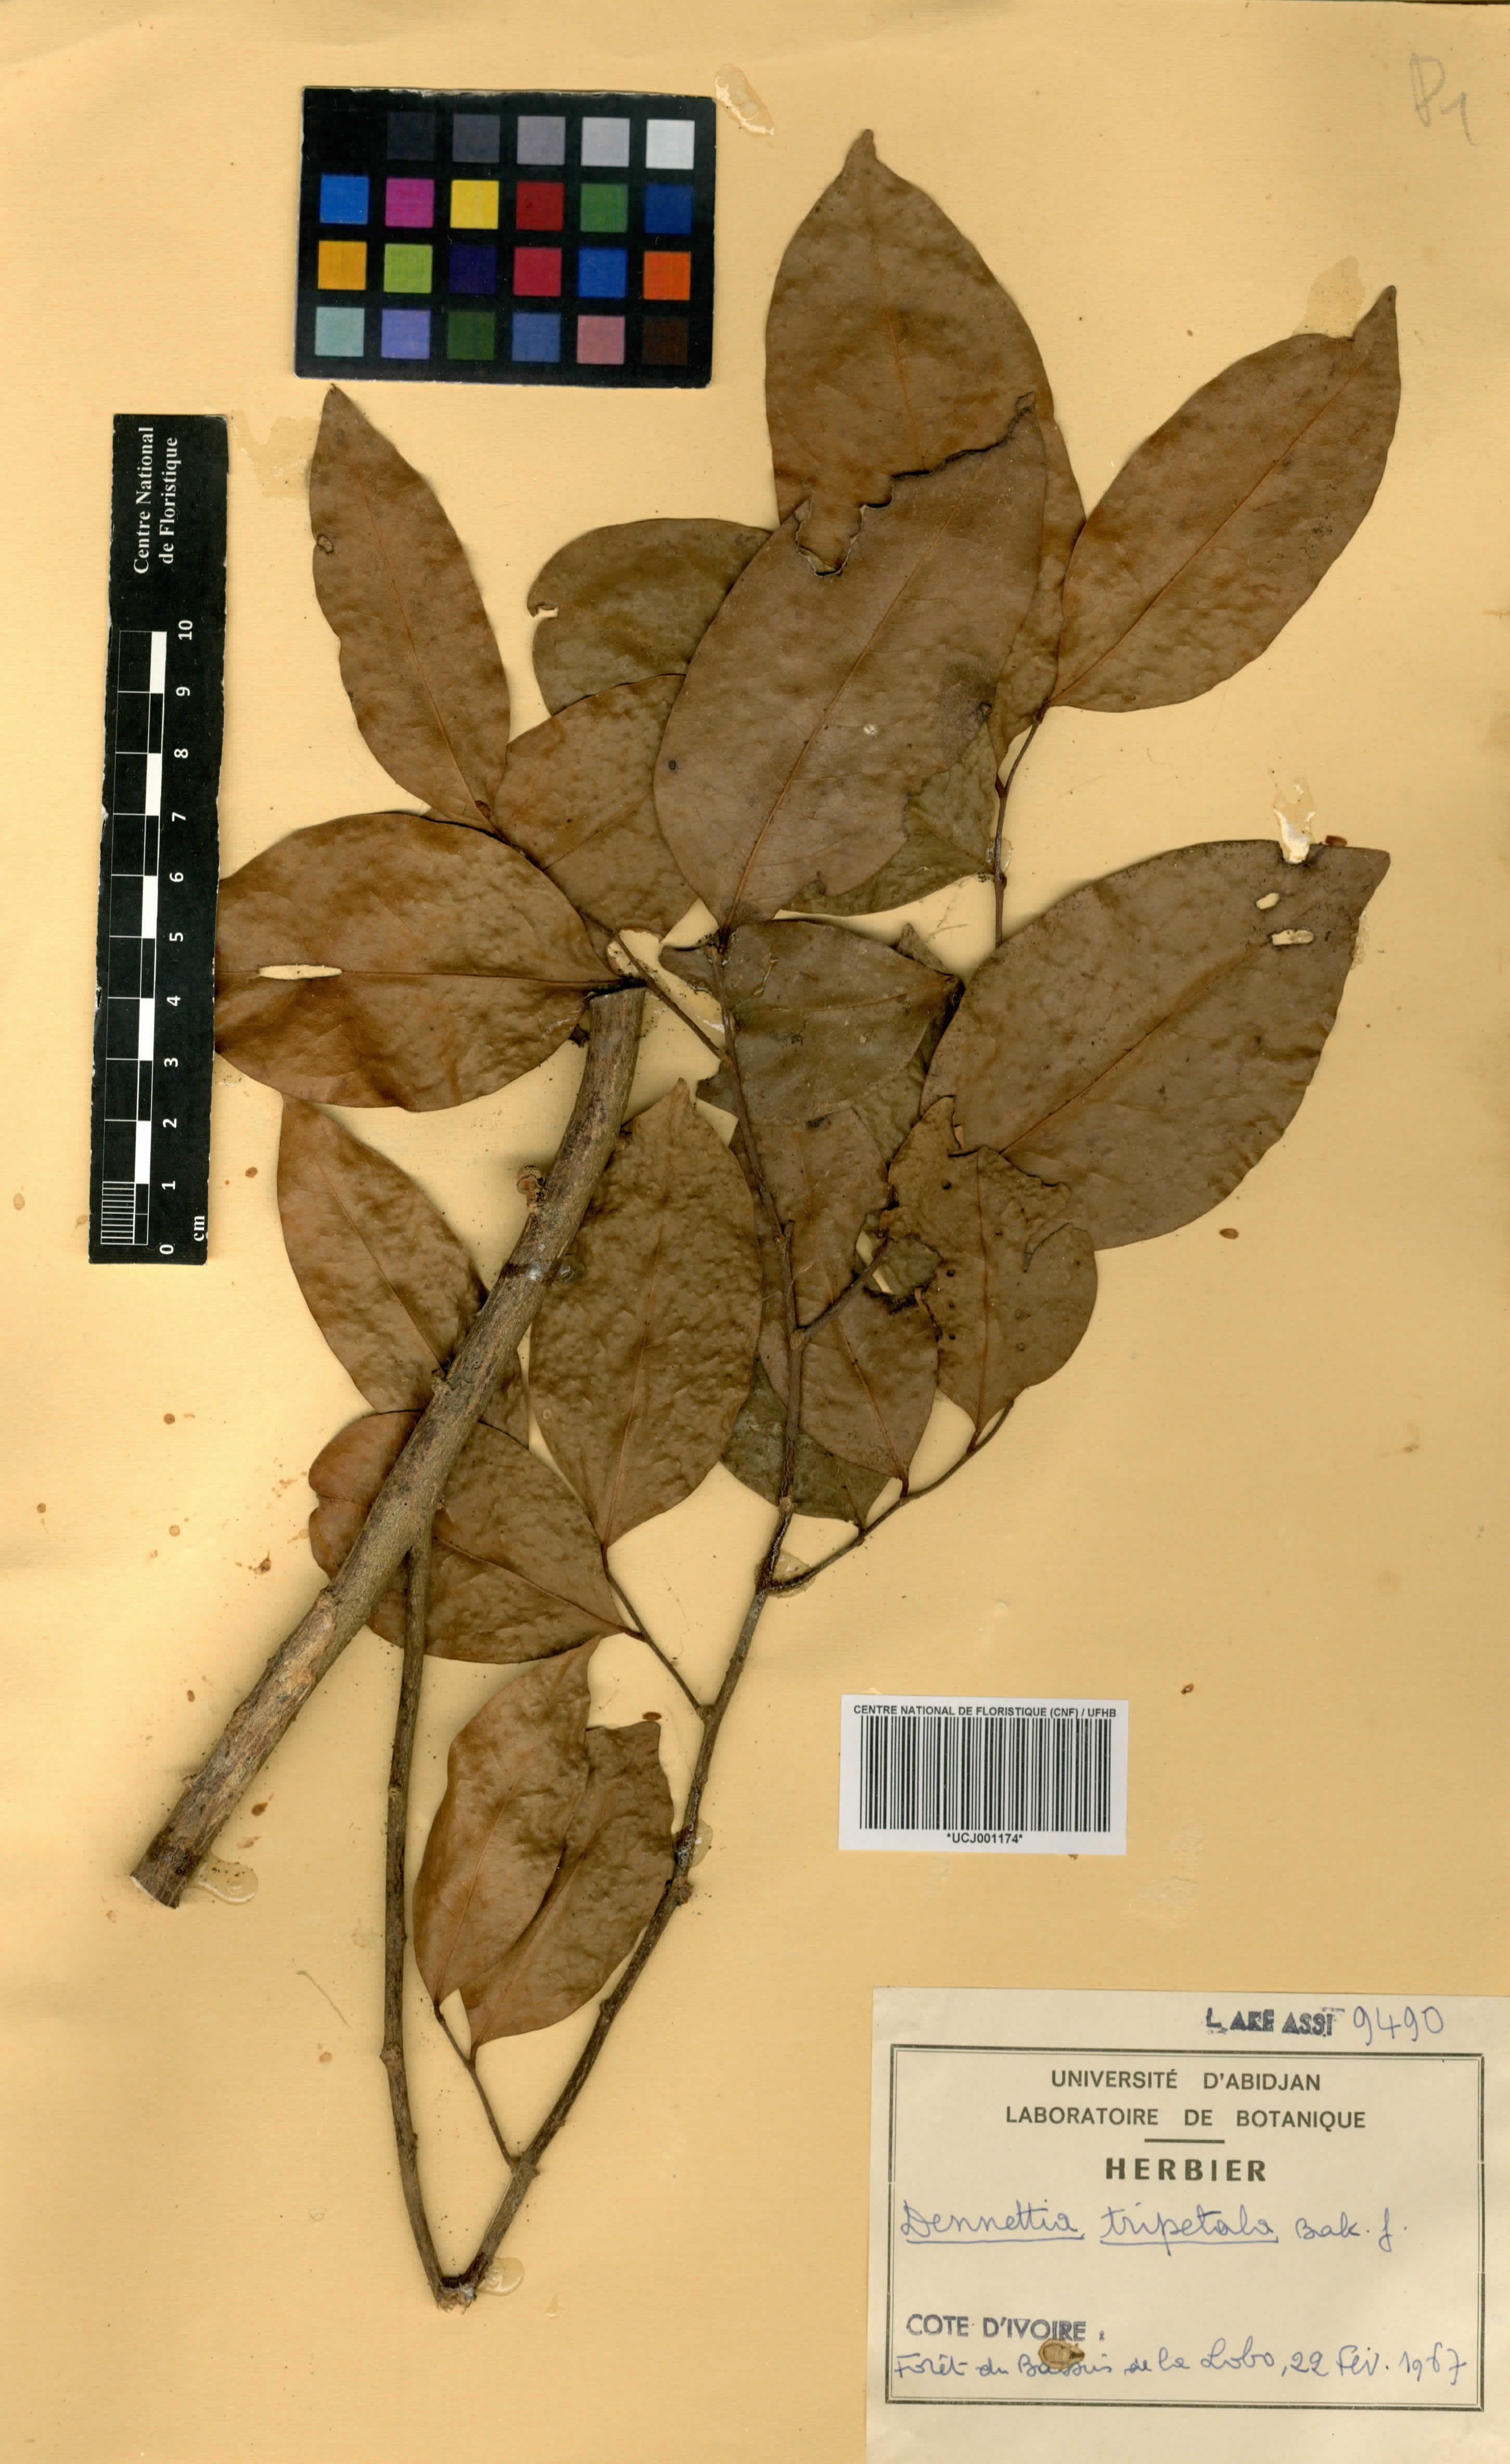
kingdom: Plantae
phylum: Tracheophyta
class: Magnoliopsida
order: Magnoliales
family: Annonaceae
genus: Uvariopsis
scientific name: Uvariopsis tripetala
